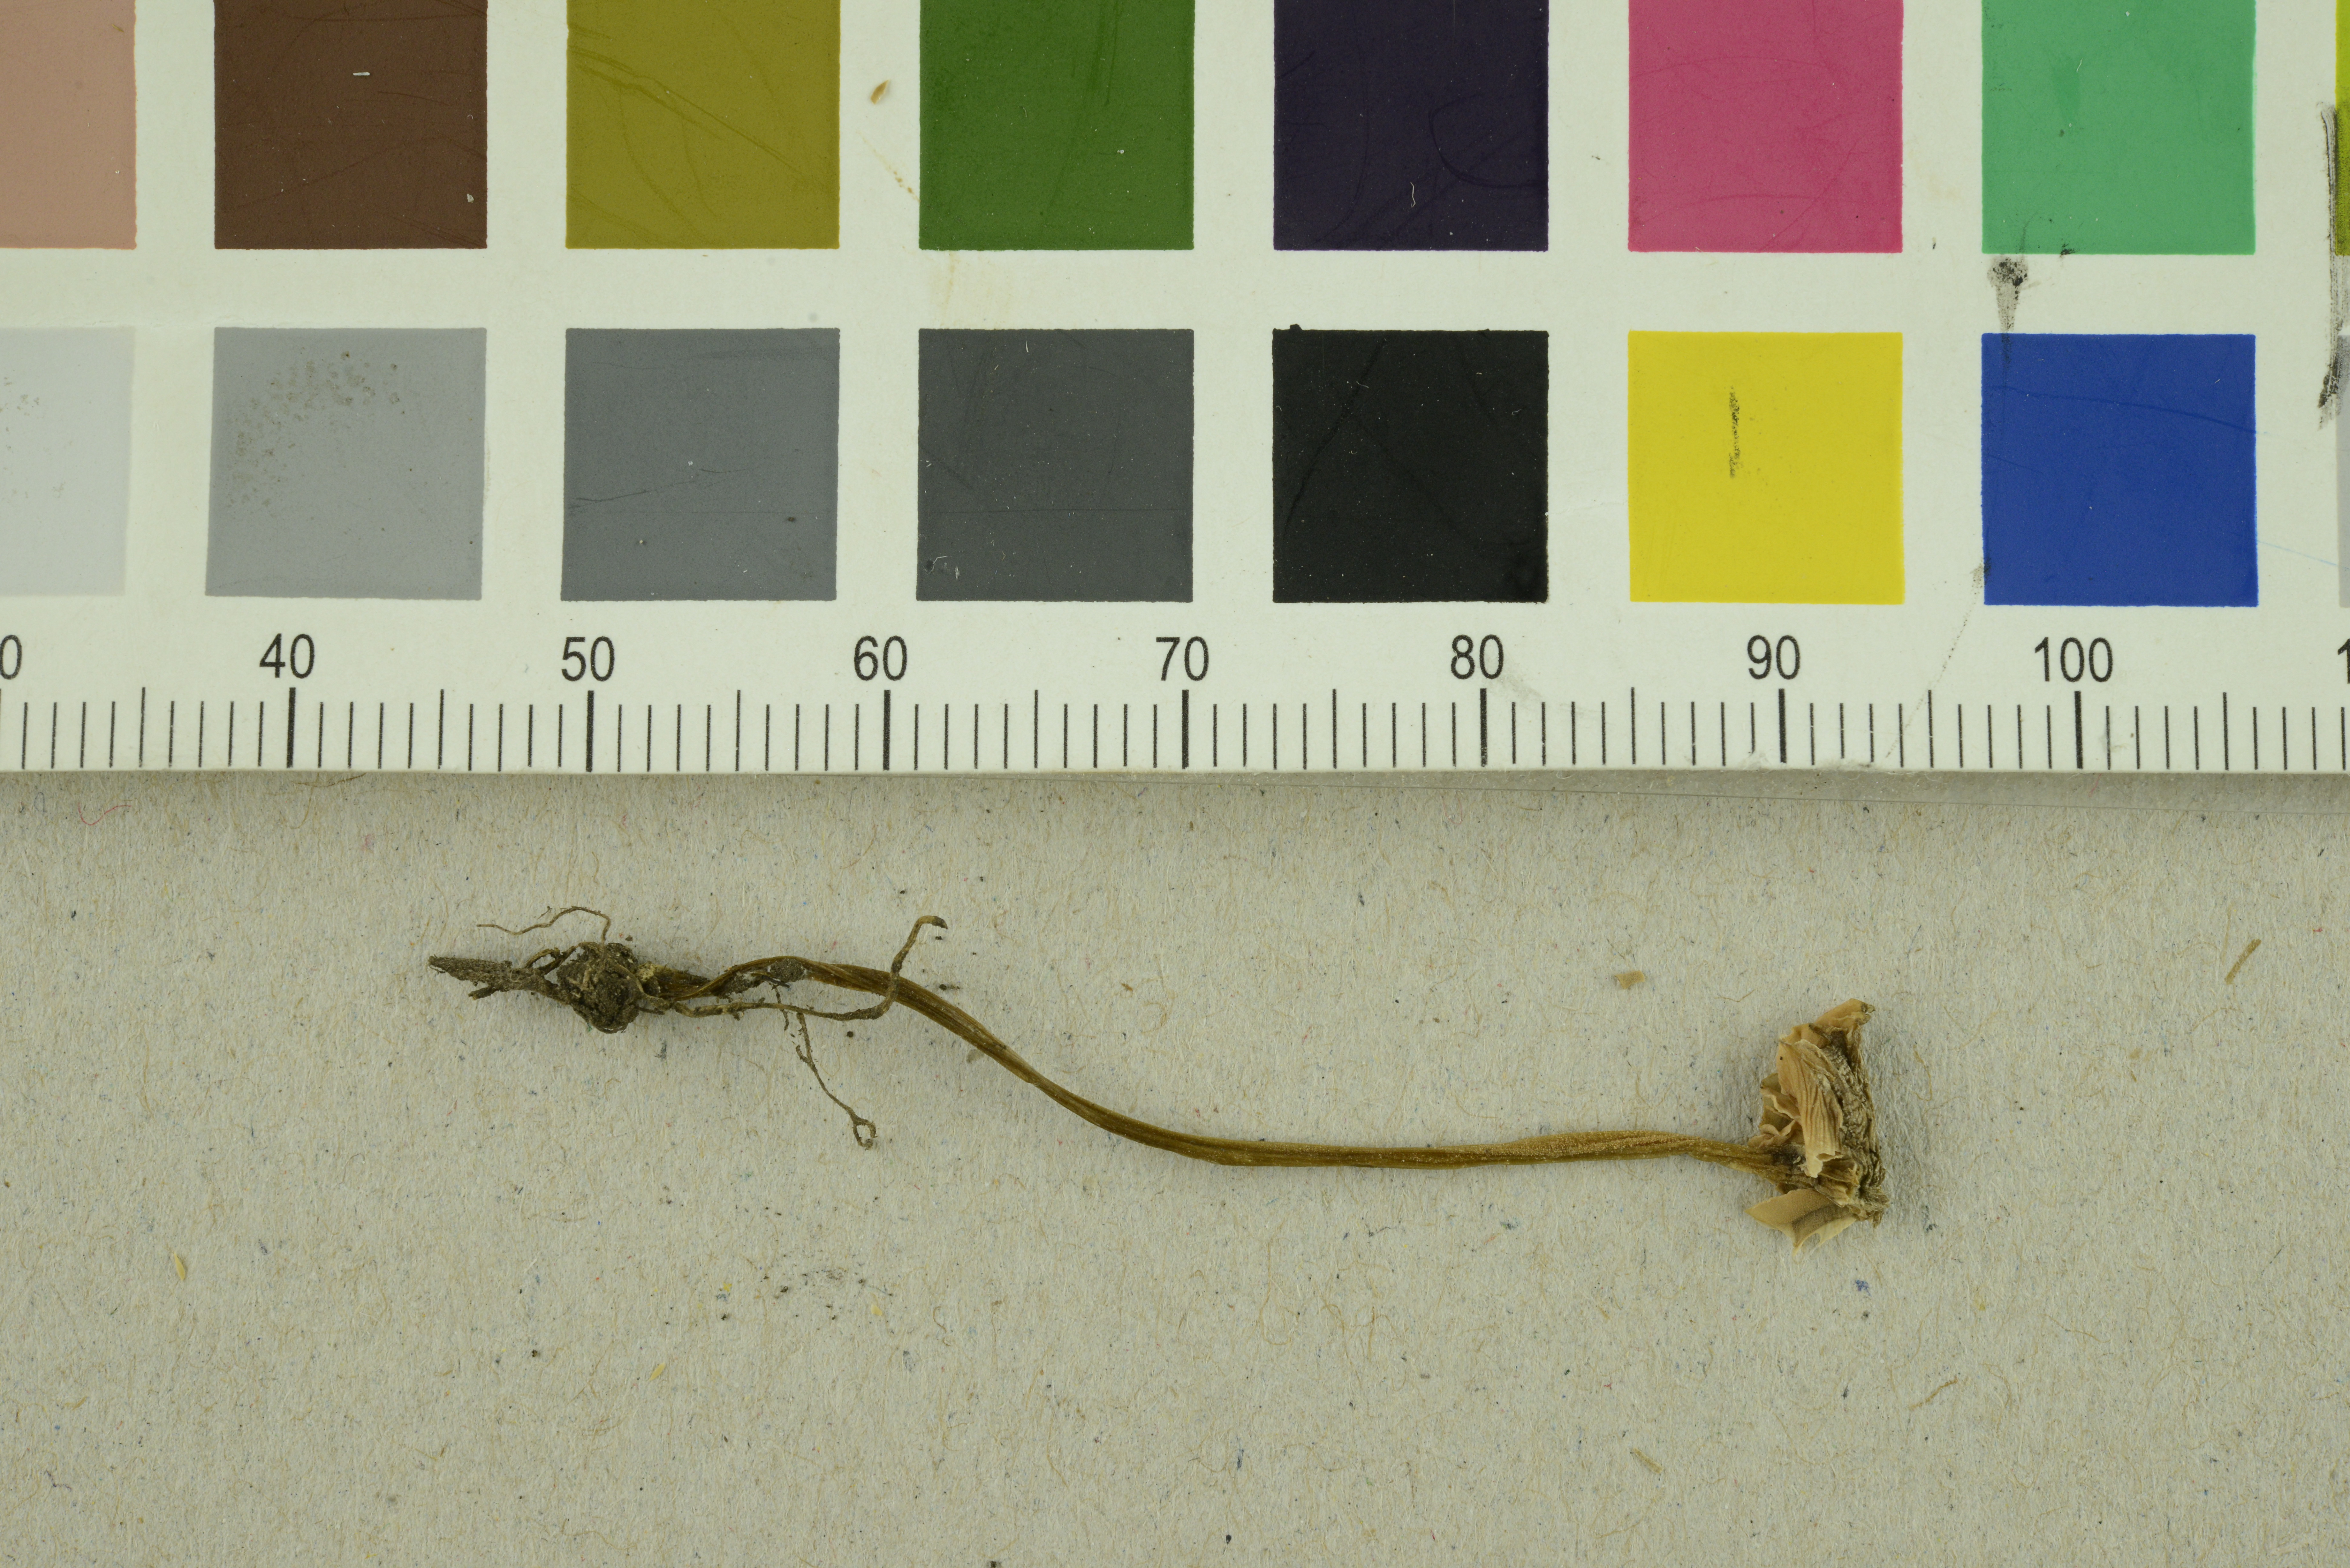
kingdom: Fungi
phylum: Basidiomycota
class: Agaricomycetes
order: Agaricales
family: Entolomataceae
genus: Entoloma
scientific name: Entoloma rhombisporoides
